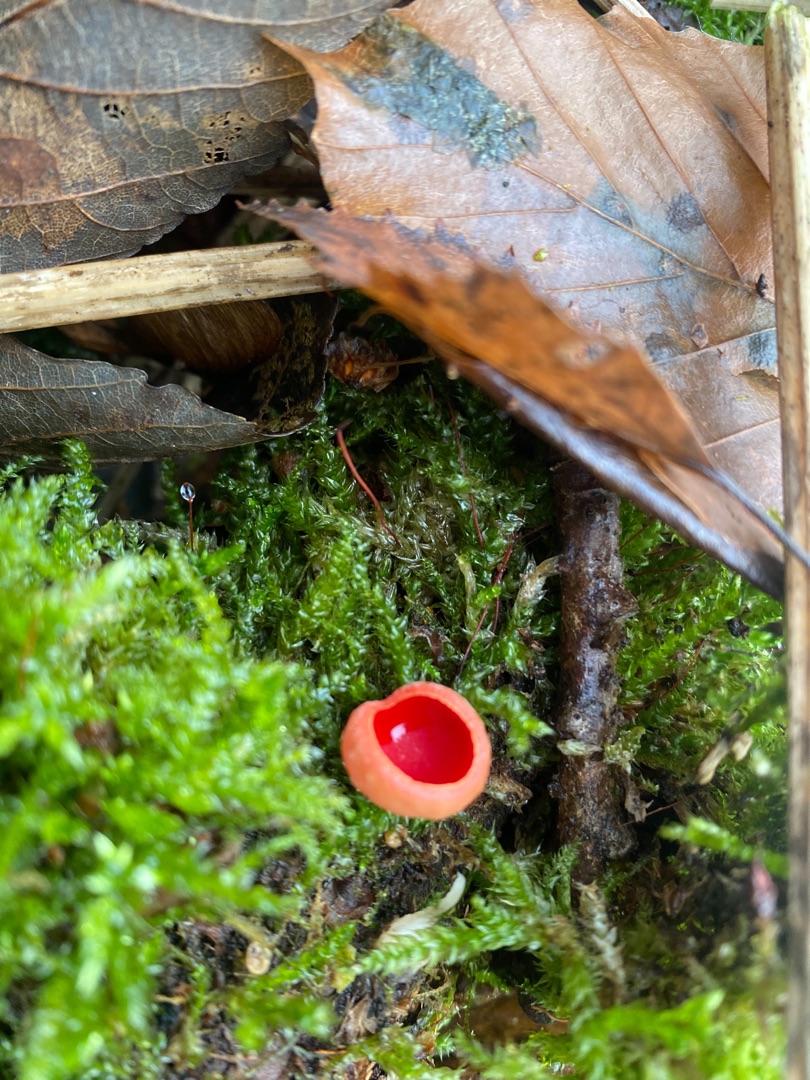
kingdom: Fungi
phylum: Ascomycota
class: Pezizomycetes
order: Pezizales
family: Sarcoscyphaceae
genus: Sarcoscypha
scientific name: Sarcoscypha austriaca
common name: Krølhåret pragtbæger
